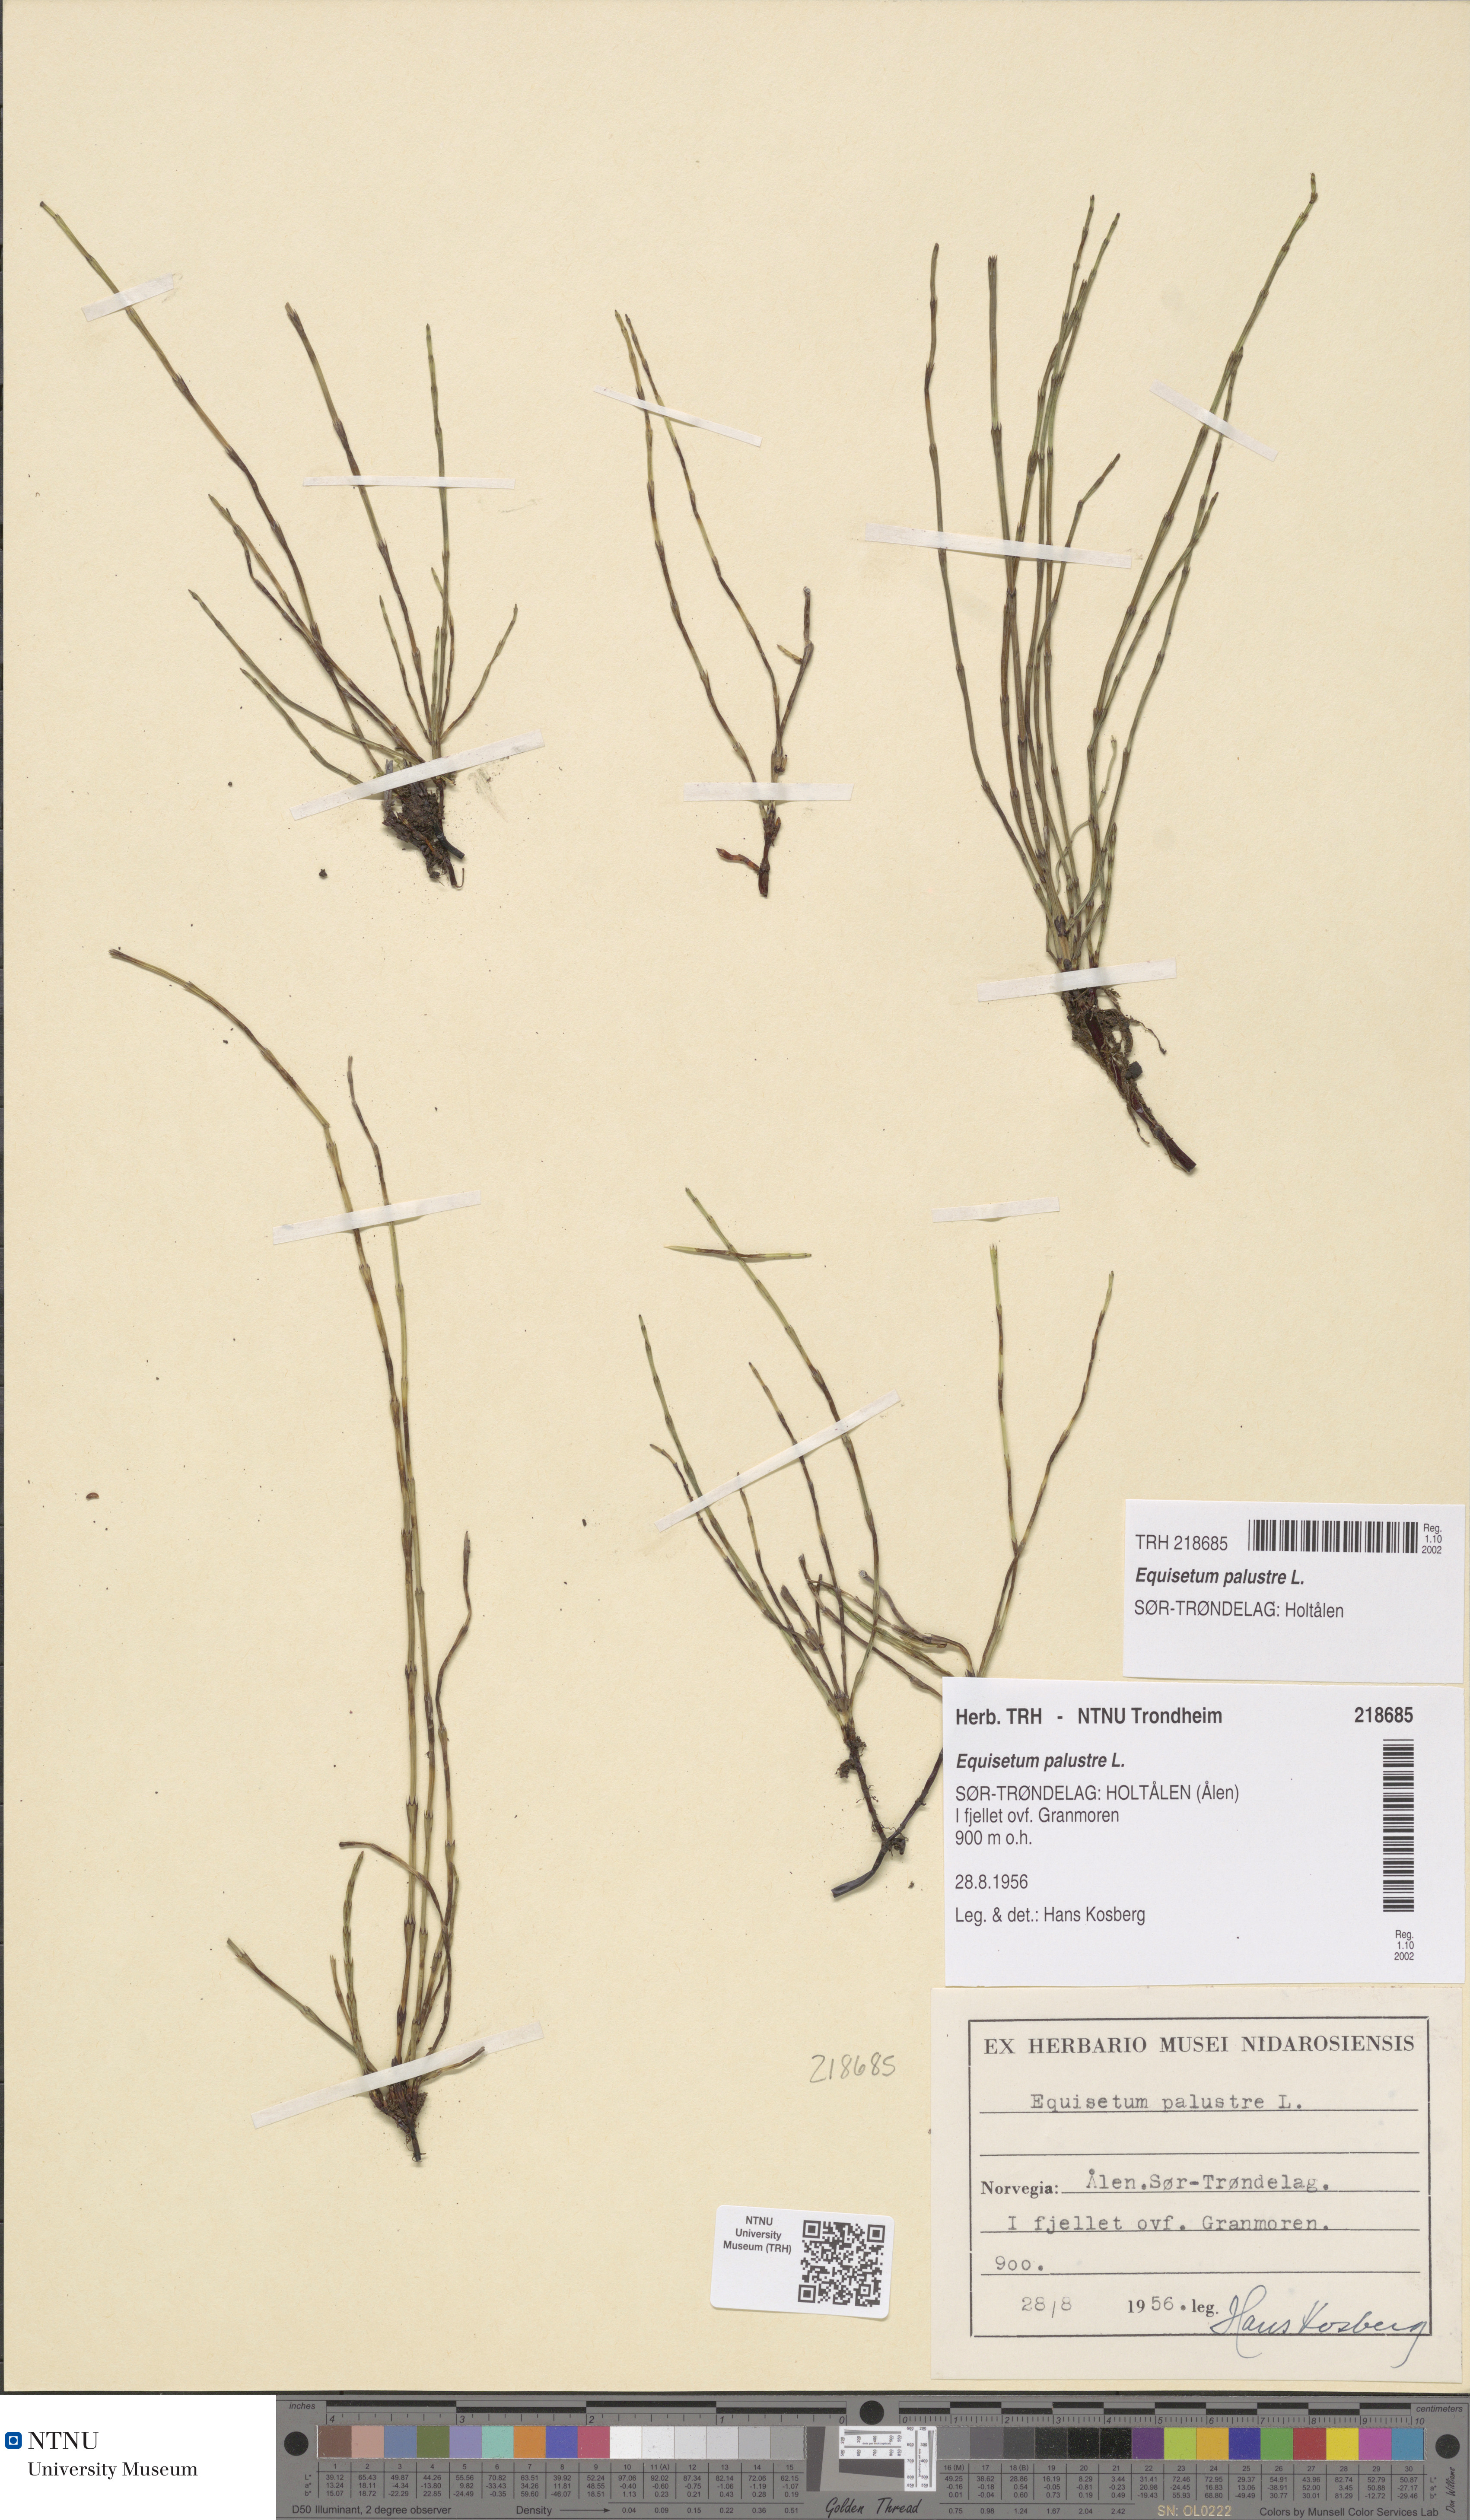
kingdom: Plantae
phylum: Tracheophyta
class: Polypodiopsida
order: Equisetales
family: Equisetaceae
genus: Equisetum
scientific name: Equisetum palustre
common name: Marsh horsetail
